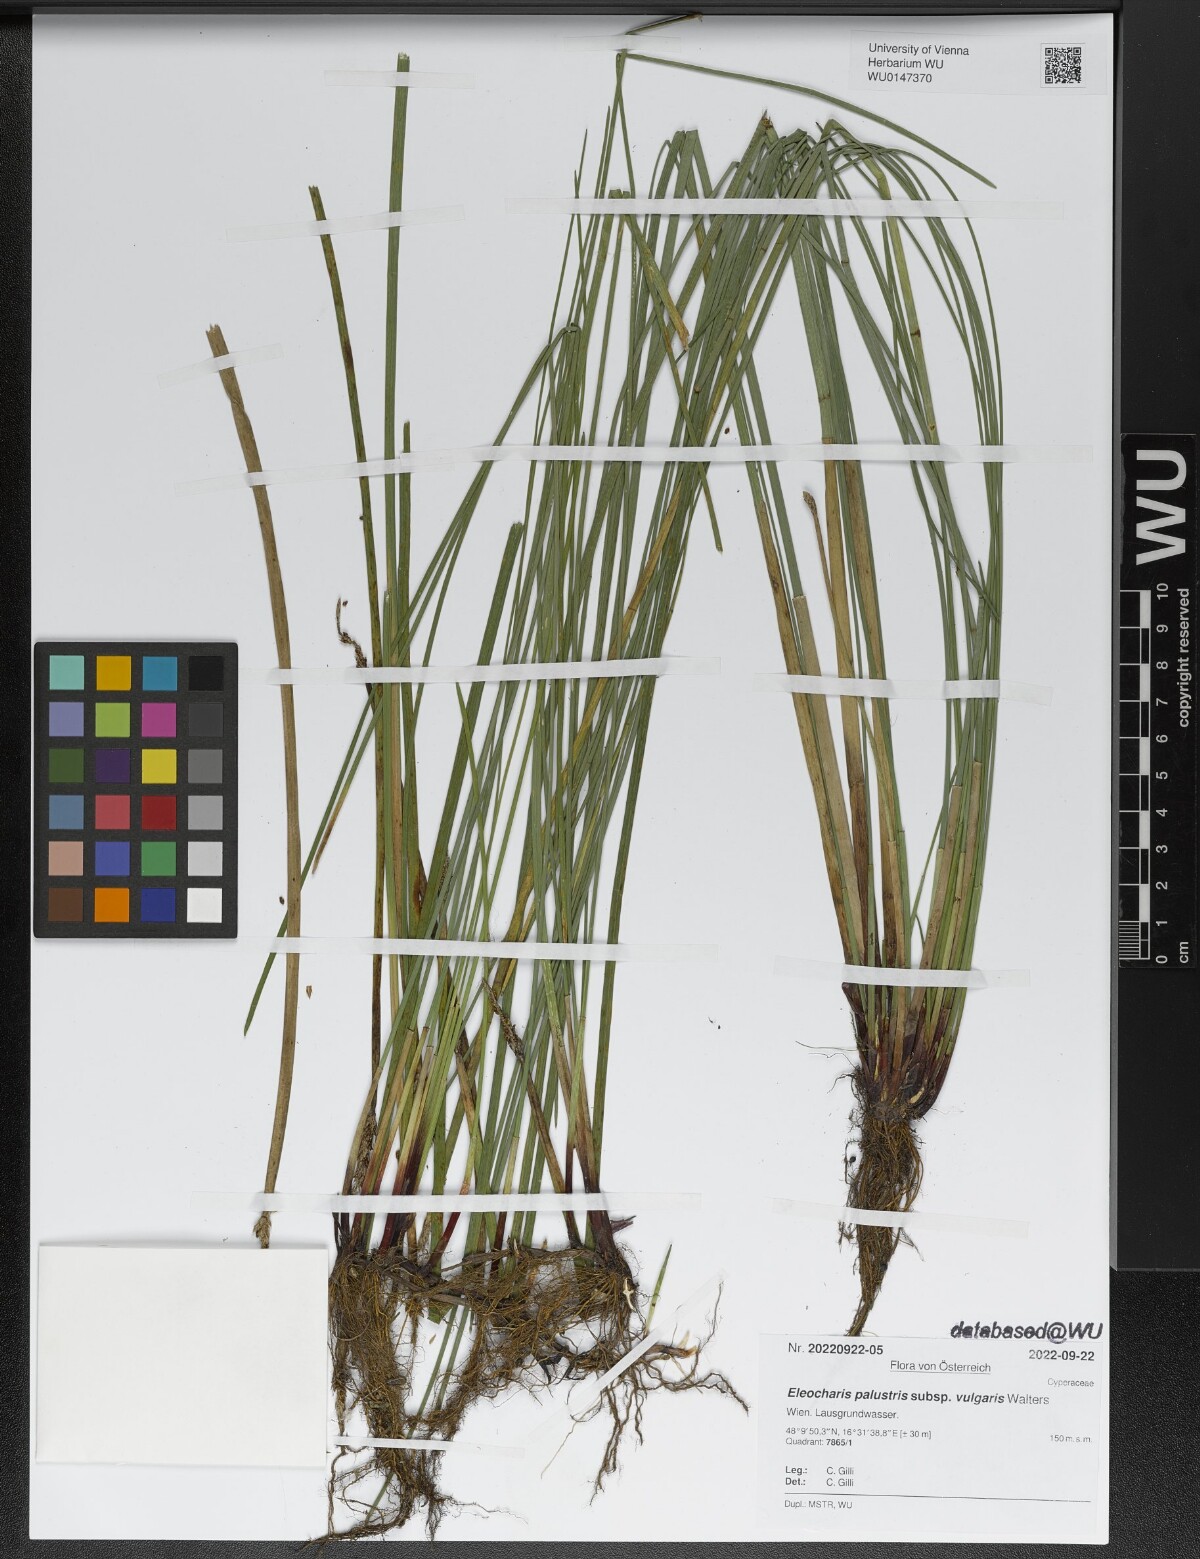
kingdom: Plantae
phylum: Tracheophyta
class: Liliopsida
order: Poales
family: Cyperaceae
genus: Eleocharis
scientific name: Eleocharis palustris
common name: Common spike-rush
